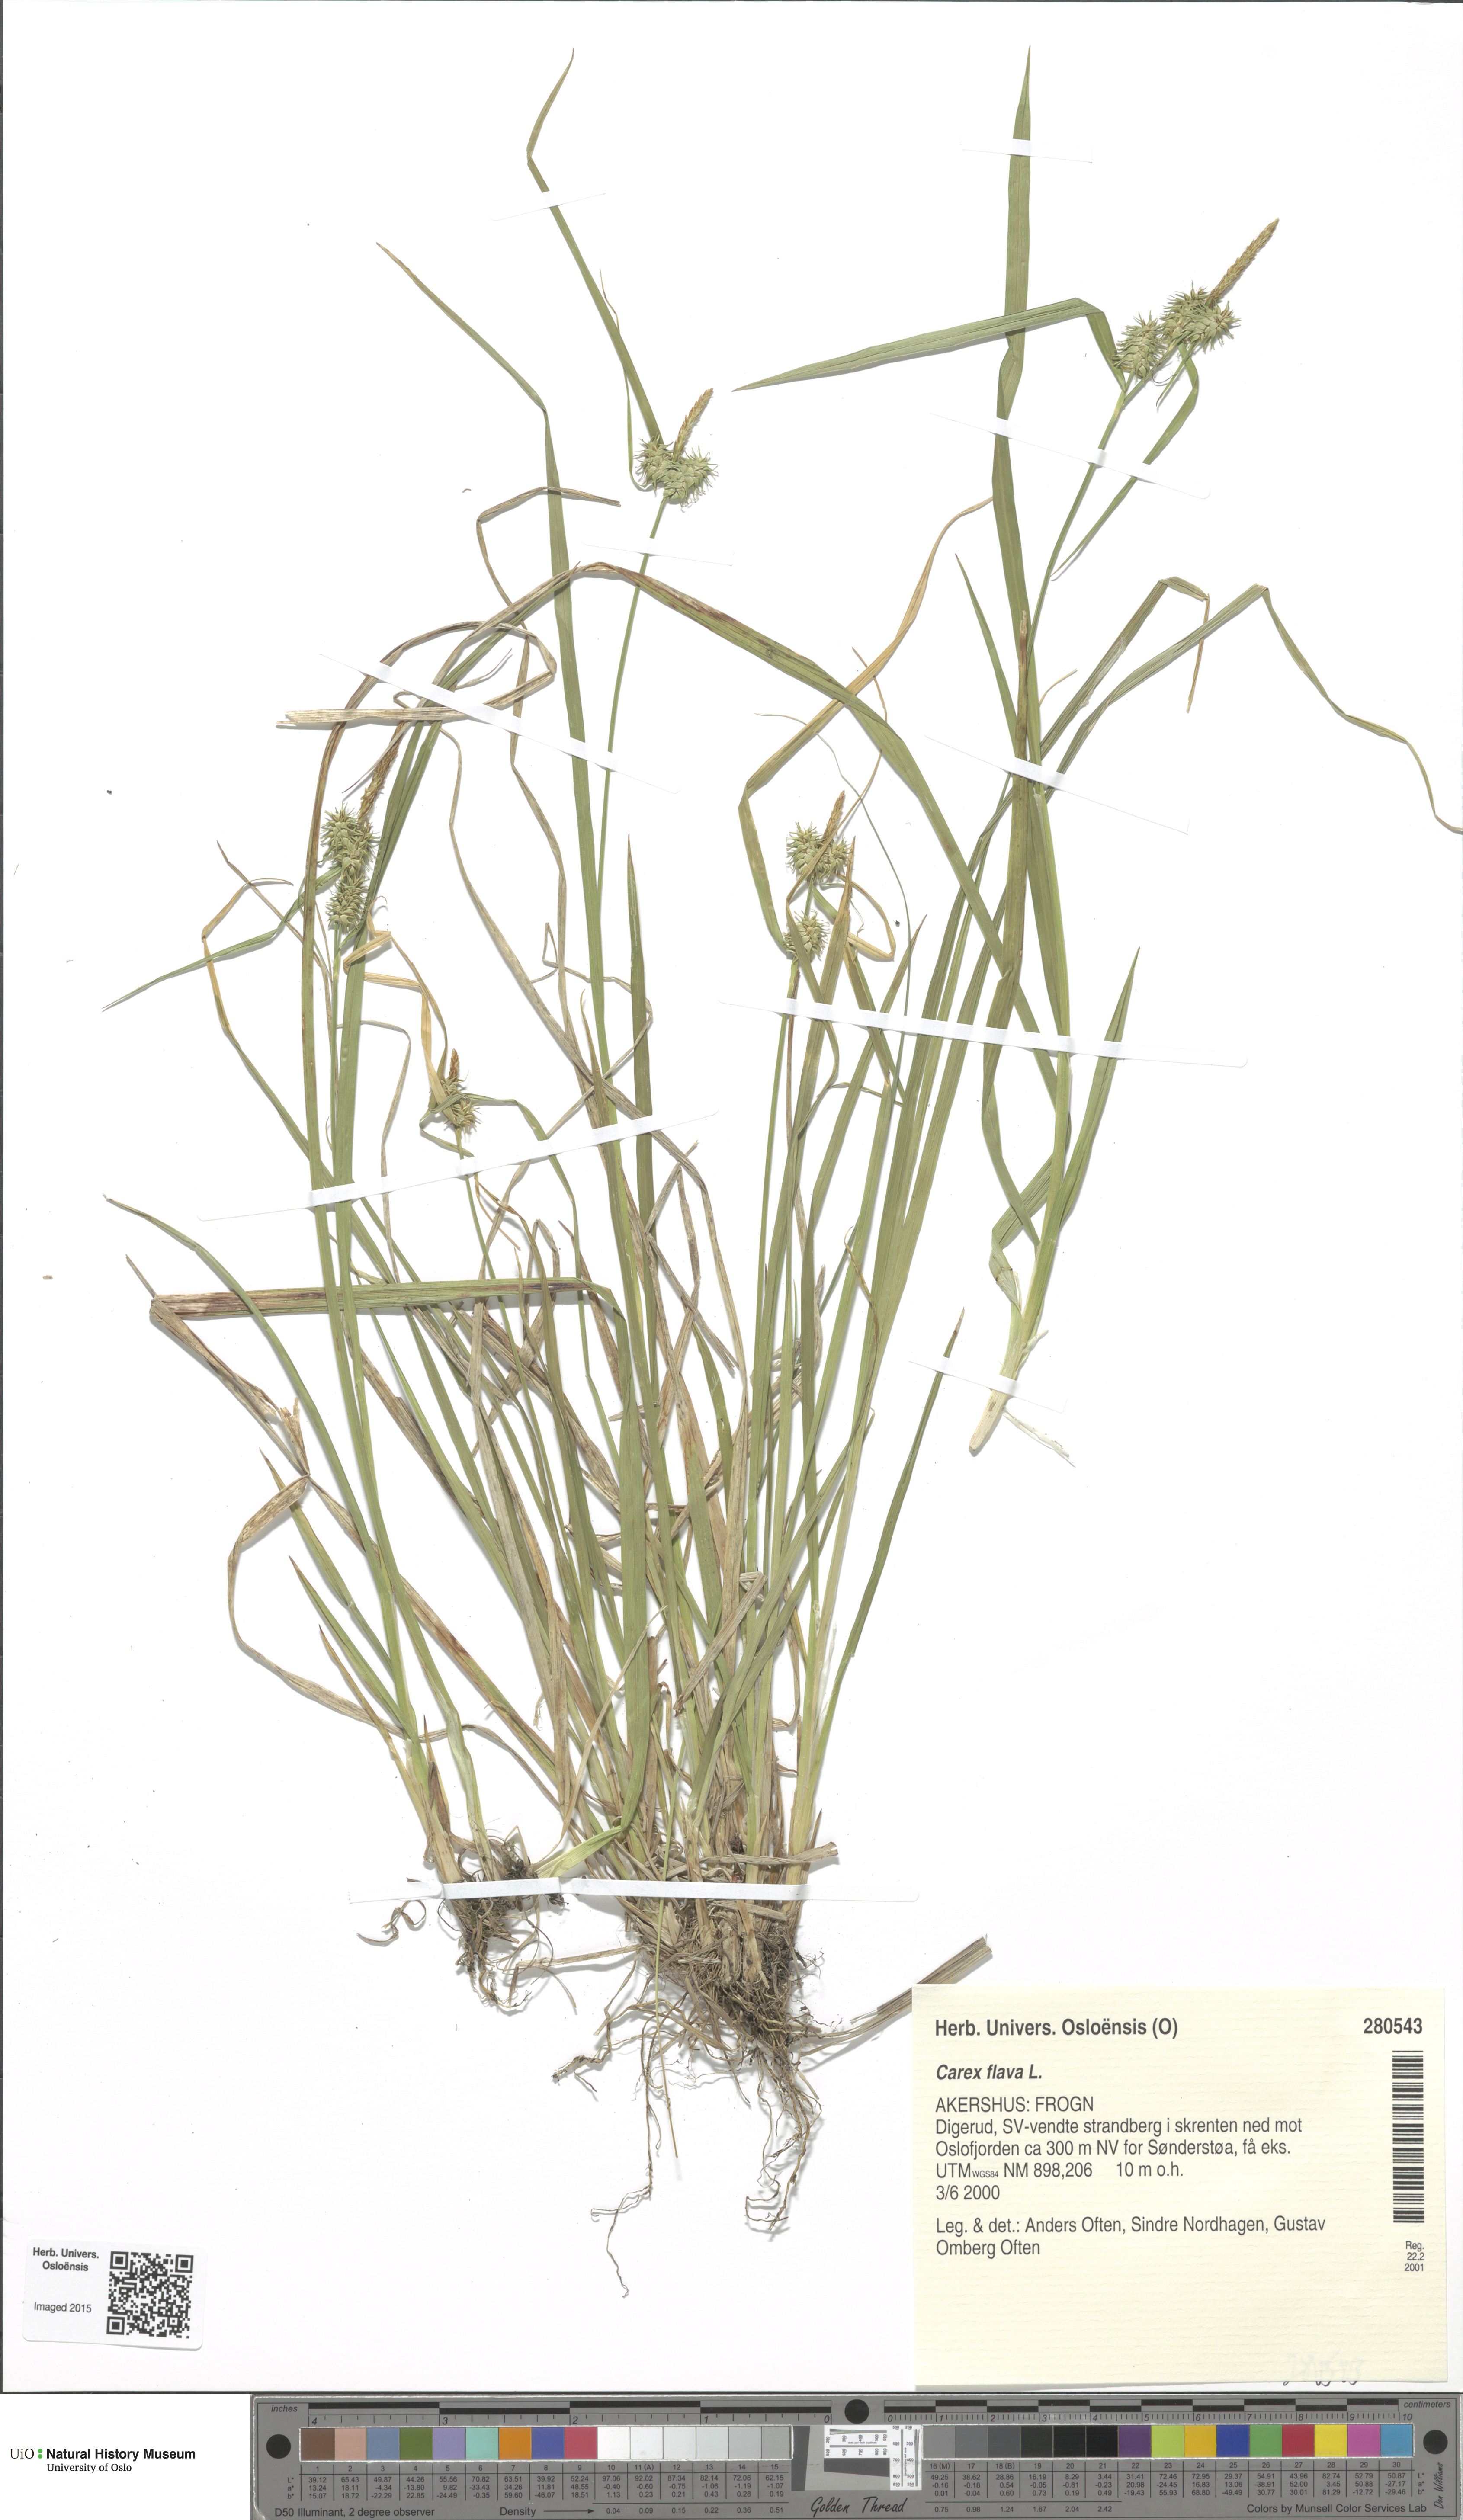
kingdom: Plantae
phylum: Tracheophyta
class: Liliopsida
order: Poales
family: Cyperaceae
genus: Carex
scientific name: Carex flava
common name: Large yellow-sedge
